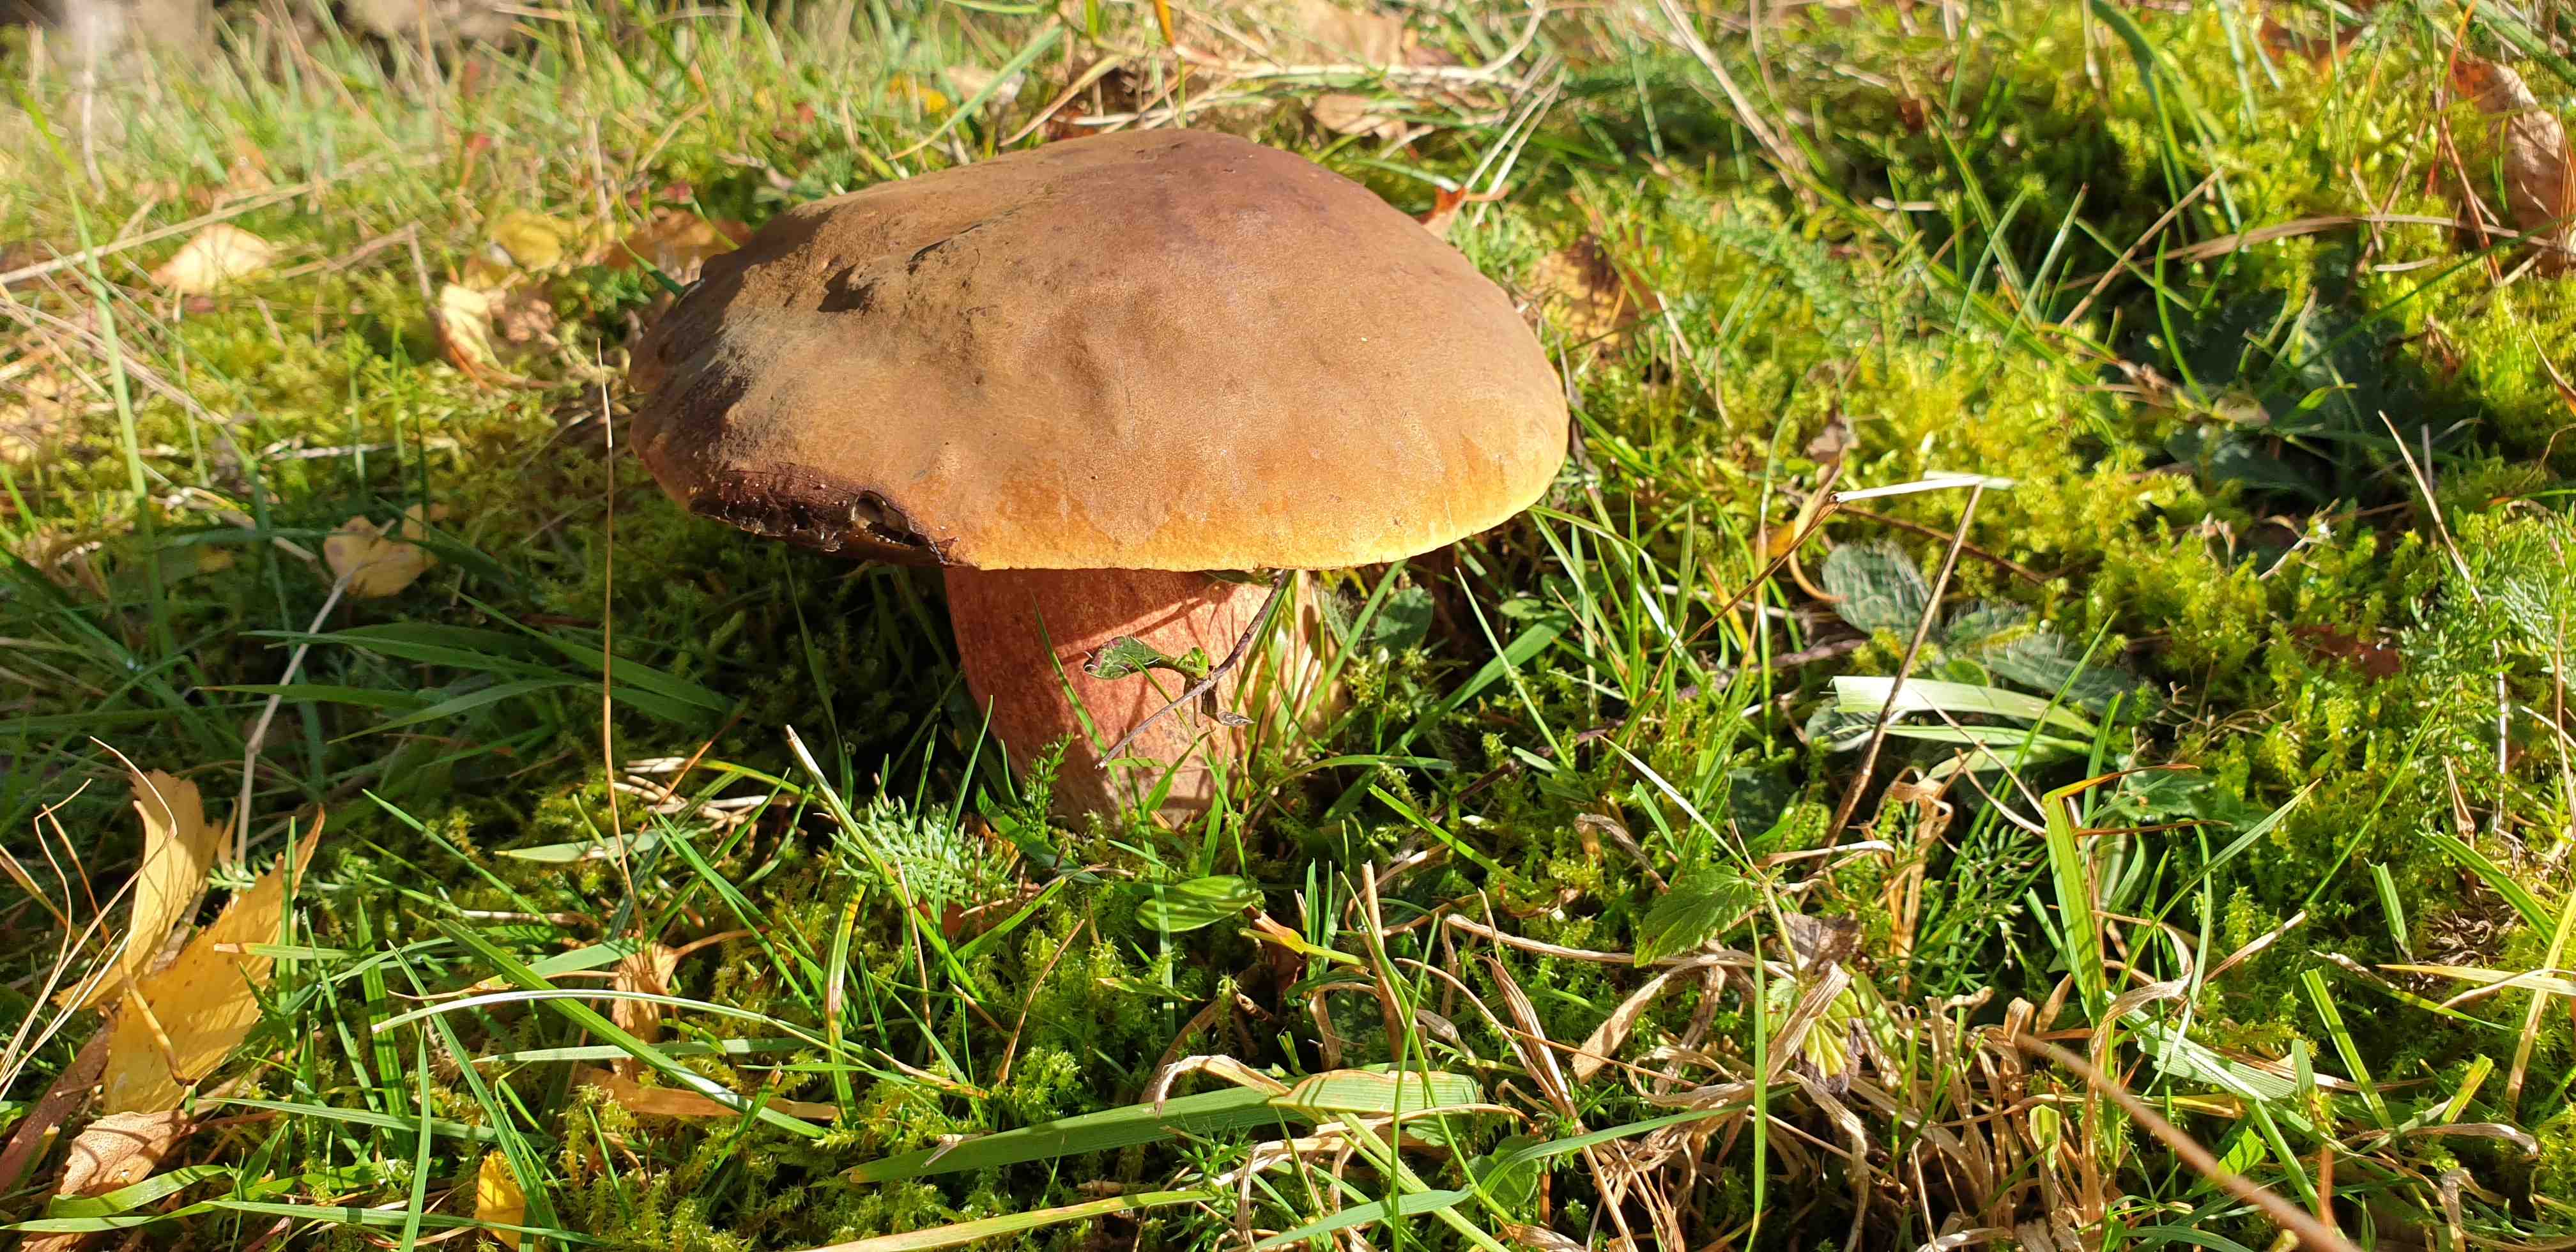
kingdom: Fungi
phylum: Basidiomycota
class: Agaricomycetes
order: Boletales
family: Boletaceae
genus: Neoboletus
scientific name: Neoboletus erythropus
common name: punktstokket indigorørhat
